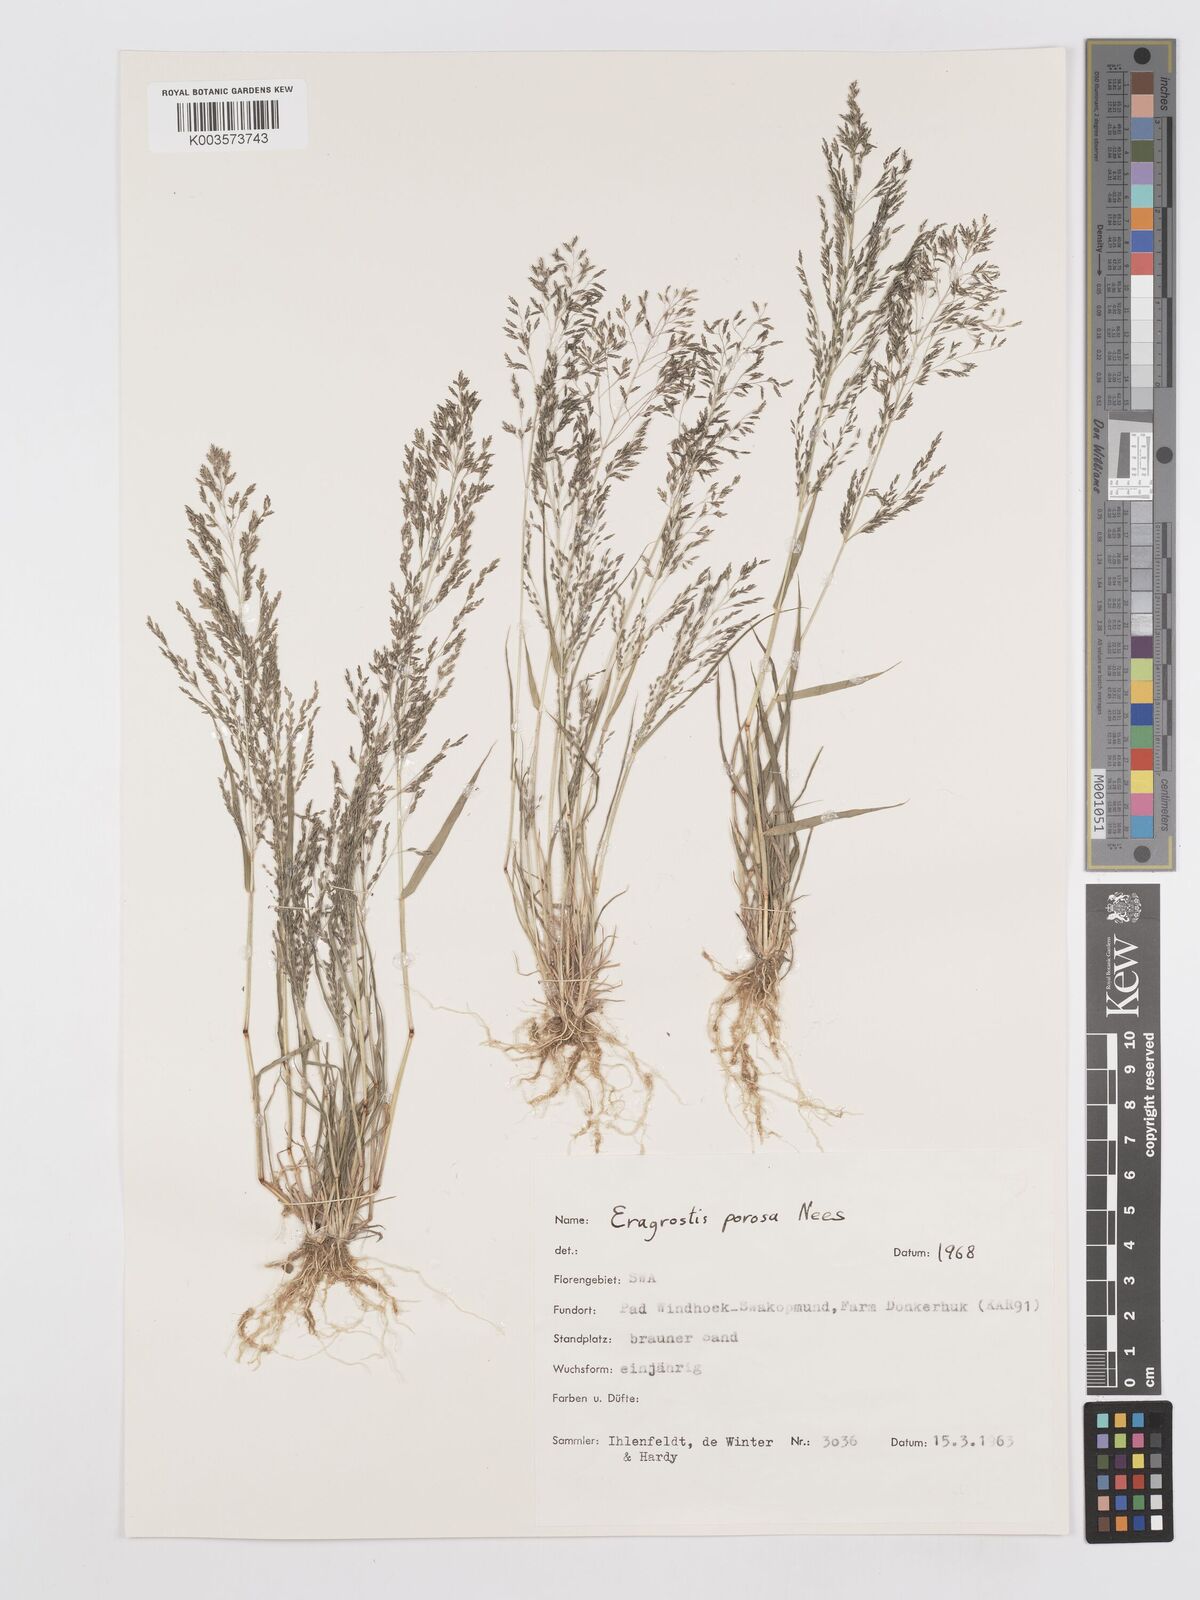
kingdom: Plantae
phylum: Tracheophyta
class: Liliopsida
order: Poales
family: Poaceae
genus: Eragrostis
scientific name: Eragrostis porosa
